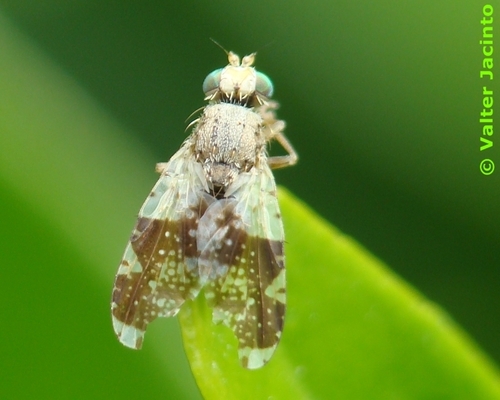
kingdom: Animalia
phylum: Arthropoda
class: Insecta
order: Diptera
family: Tephritidae
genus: Tephritis
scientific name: Tephritis formosa
